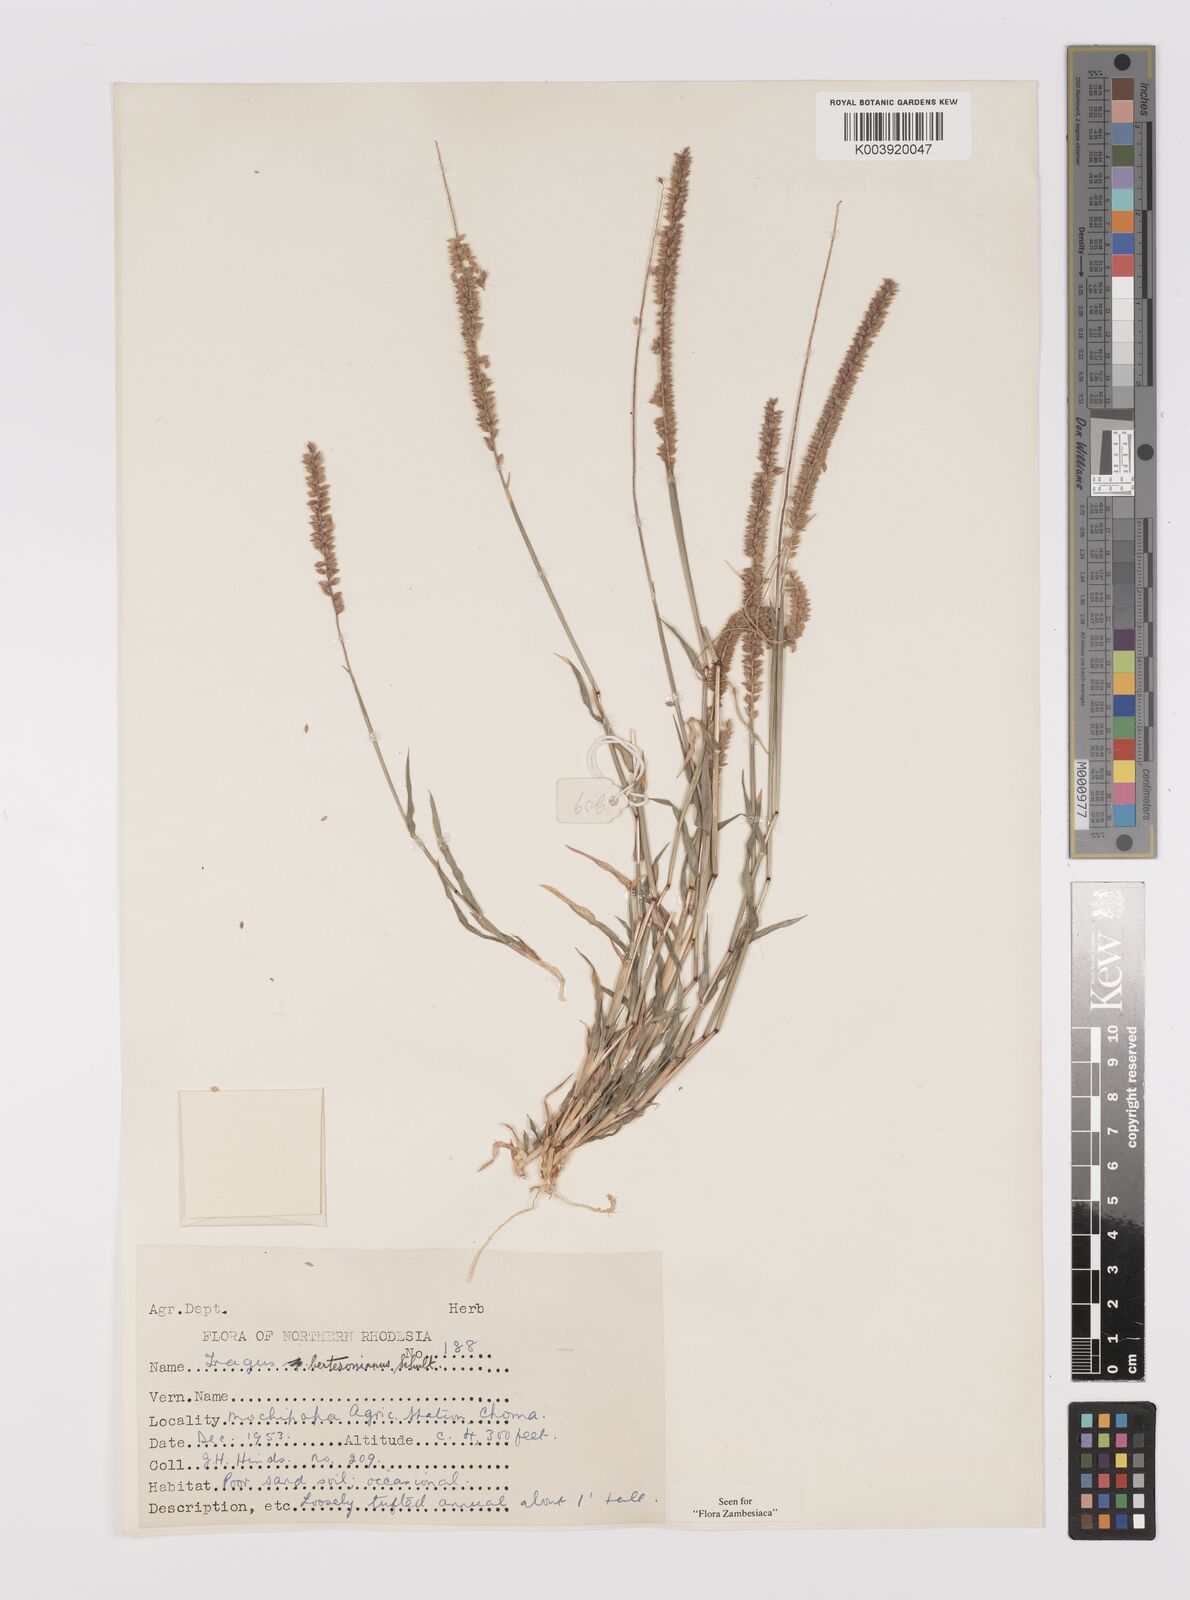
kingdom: Plantae
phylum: Tracheophyta
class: Liliopsida
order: Poales
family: Poaceae
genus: Tragus
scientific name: Tragus berteronianus
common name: African bur-grass
